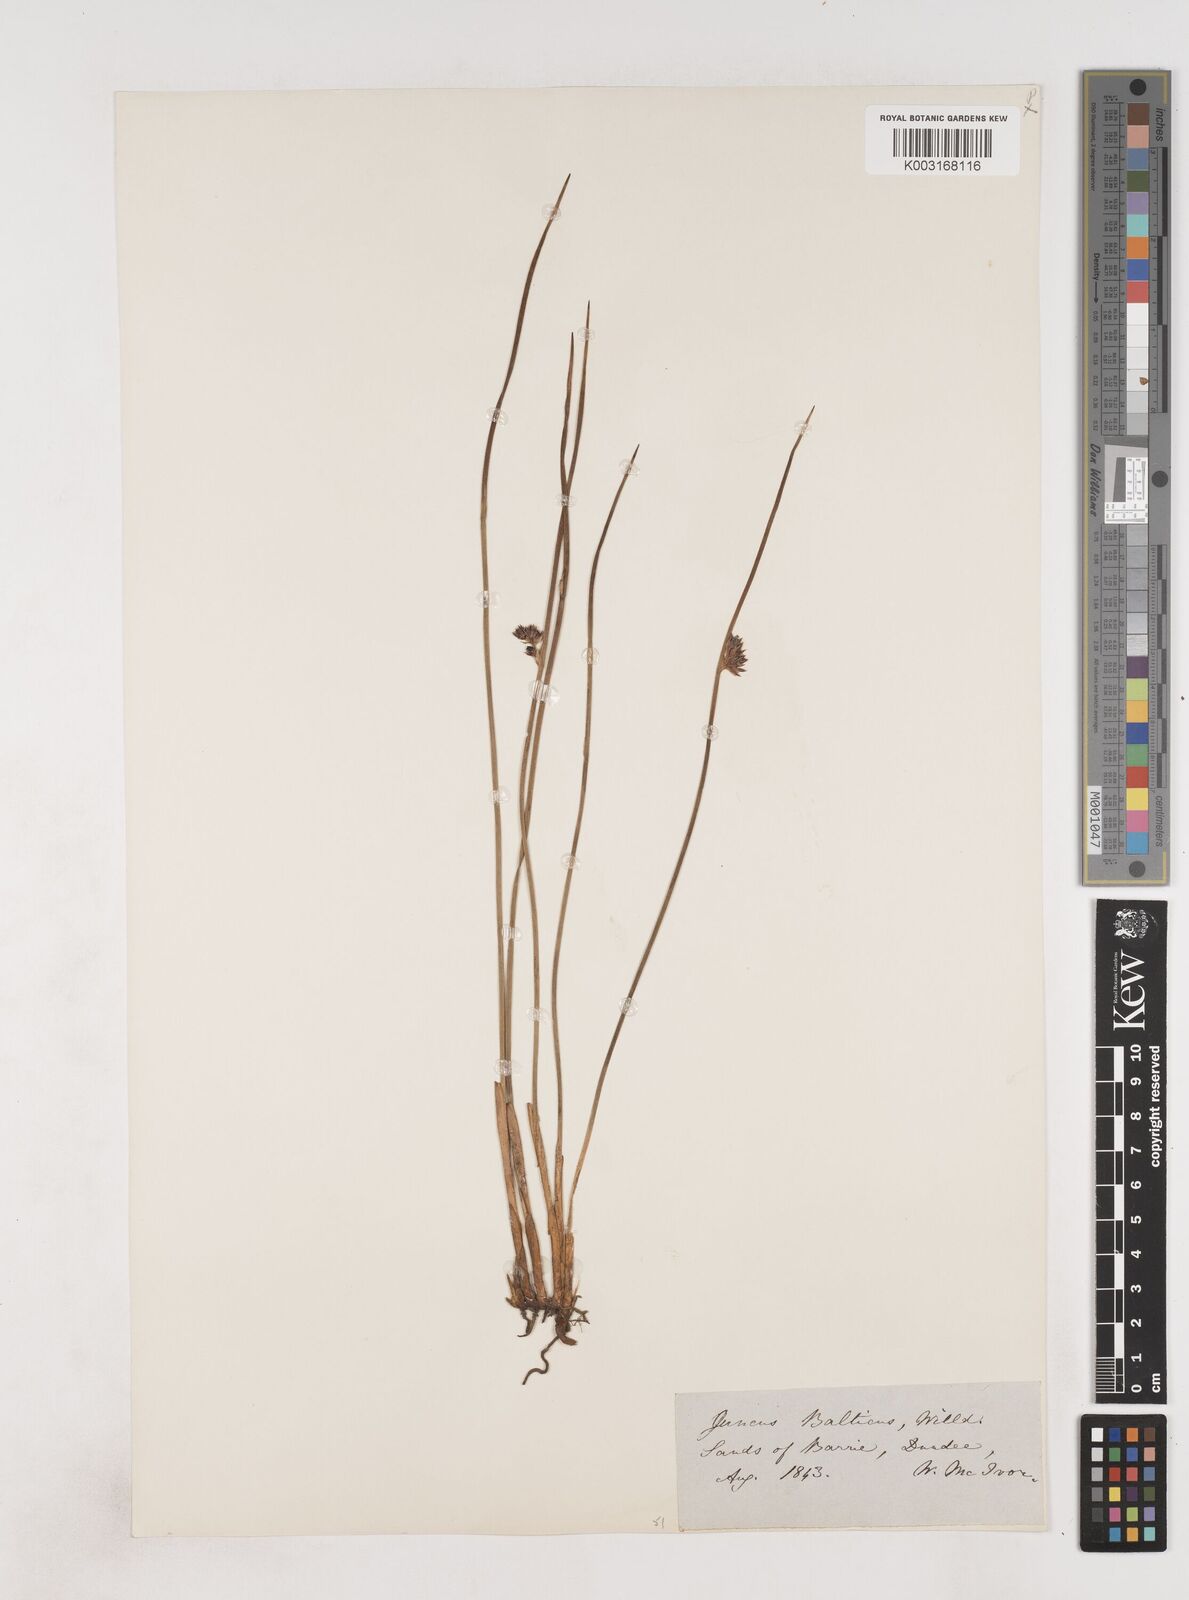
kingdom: Plantae
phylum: Tracheophyta
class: Liliopsida
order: Poales
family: Juncaceae
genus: Juncus
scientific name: Juncus balticus
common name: Baltic rush
